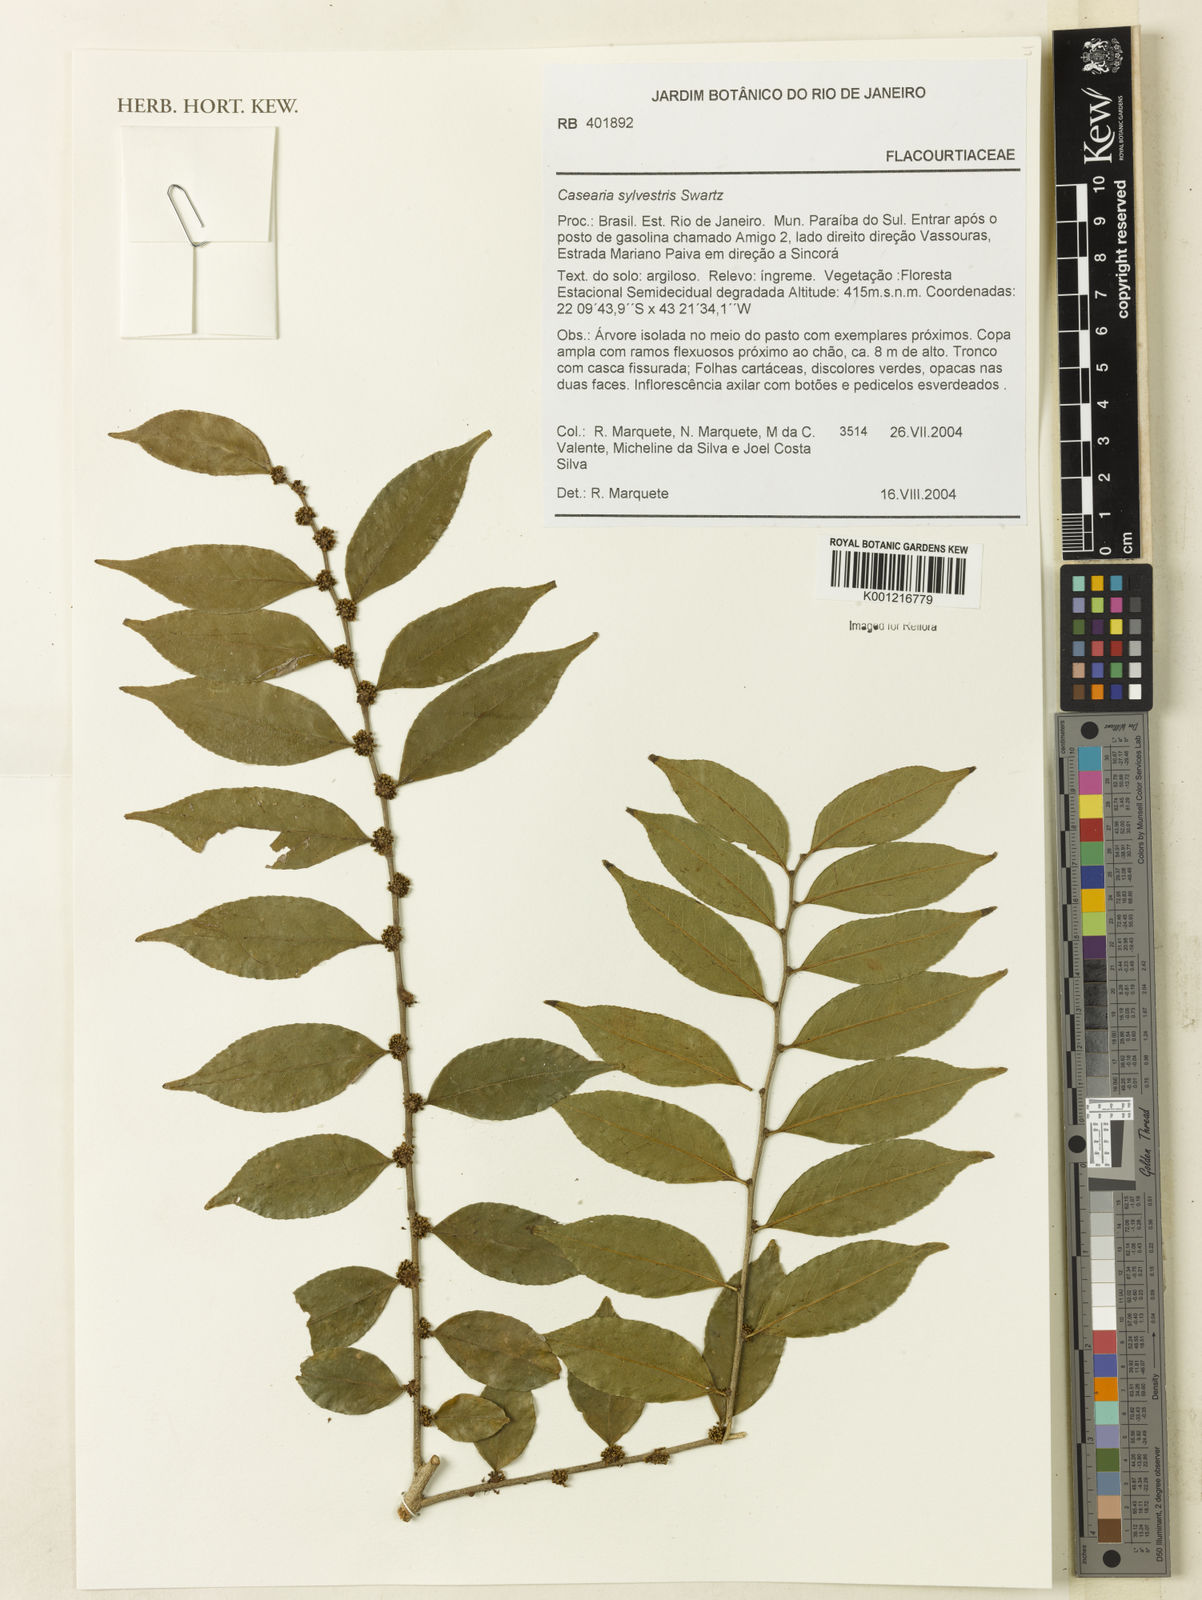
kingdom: Plantae
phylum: Tracheophyta
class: Magnoliopsida
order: Malpighiales
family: Salicaceae
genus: Casearia
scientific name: Casearia sylvestris
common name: Wild sage
